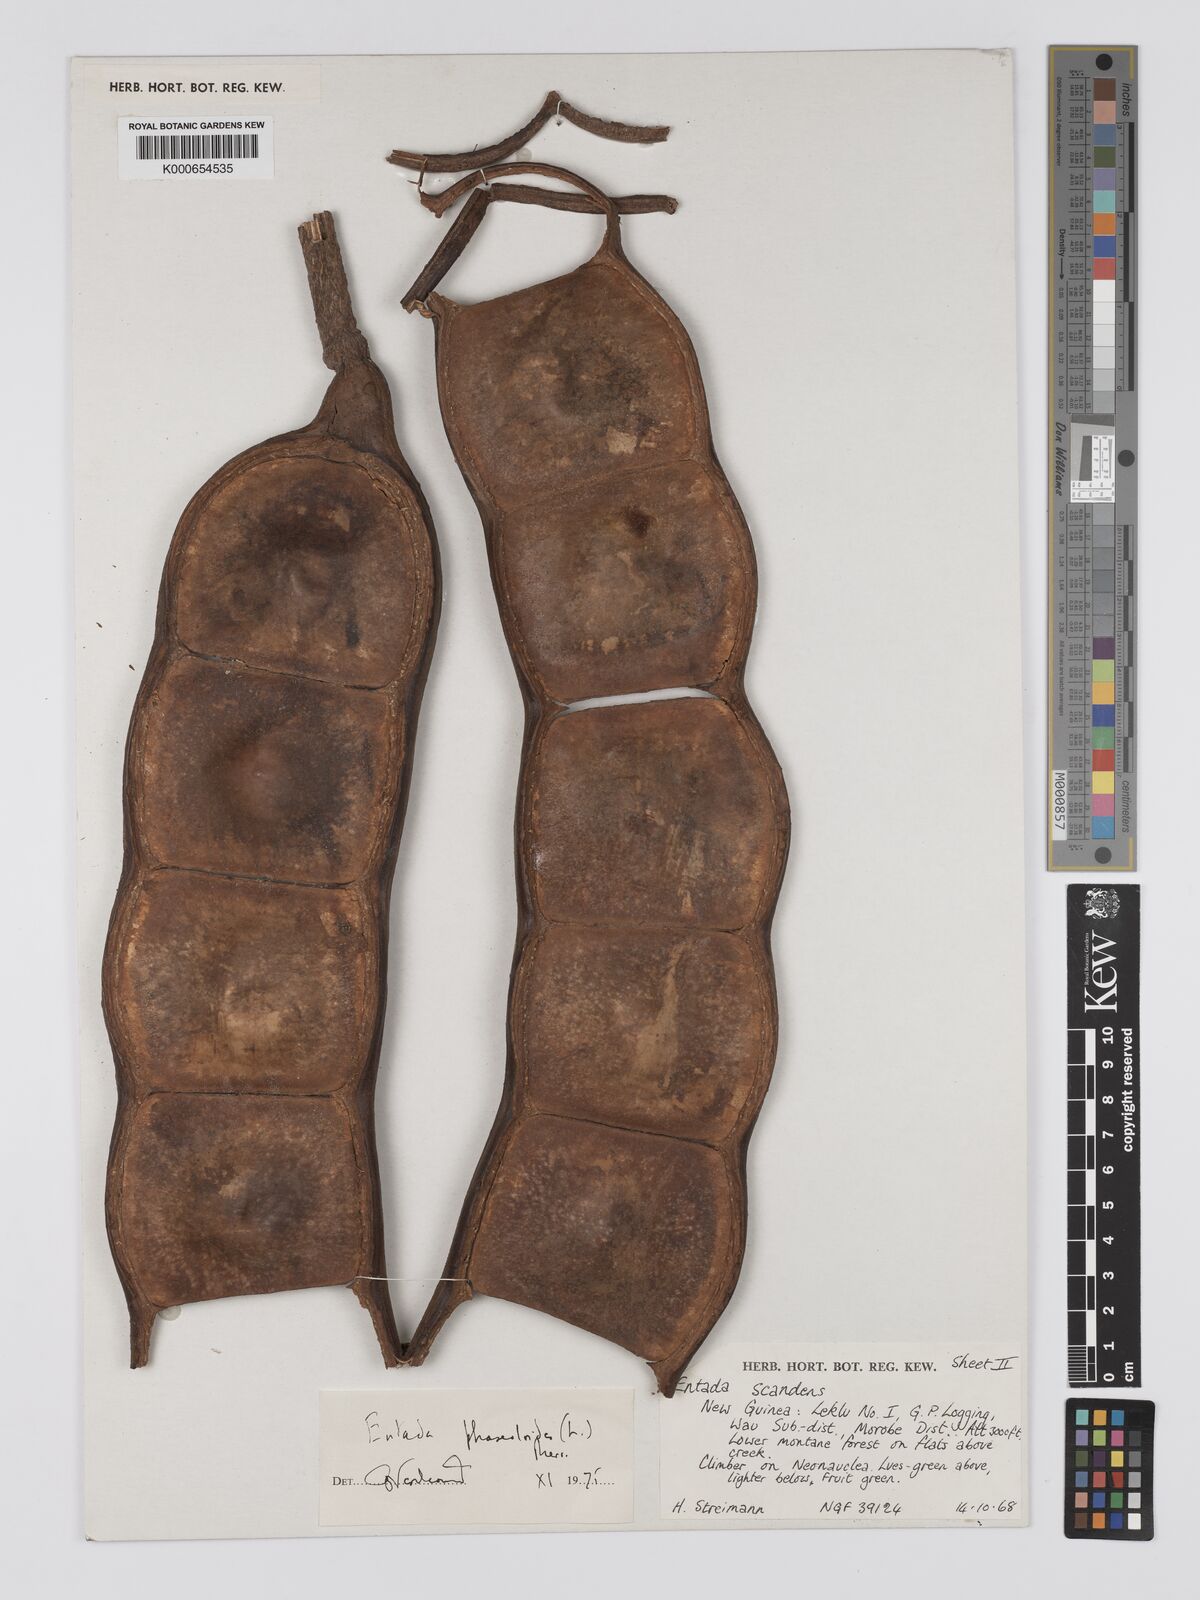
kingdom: Plantae
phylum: Tracheophyta
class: Magnoliopsida
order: Fabales
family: Fabaceae
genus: Entada
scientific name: Entada phaseoloides
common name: Matchbox-bean
